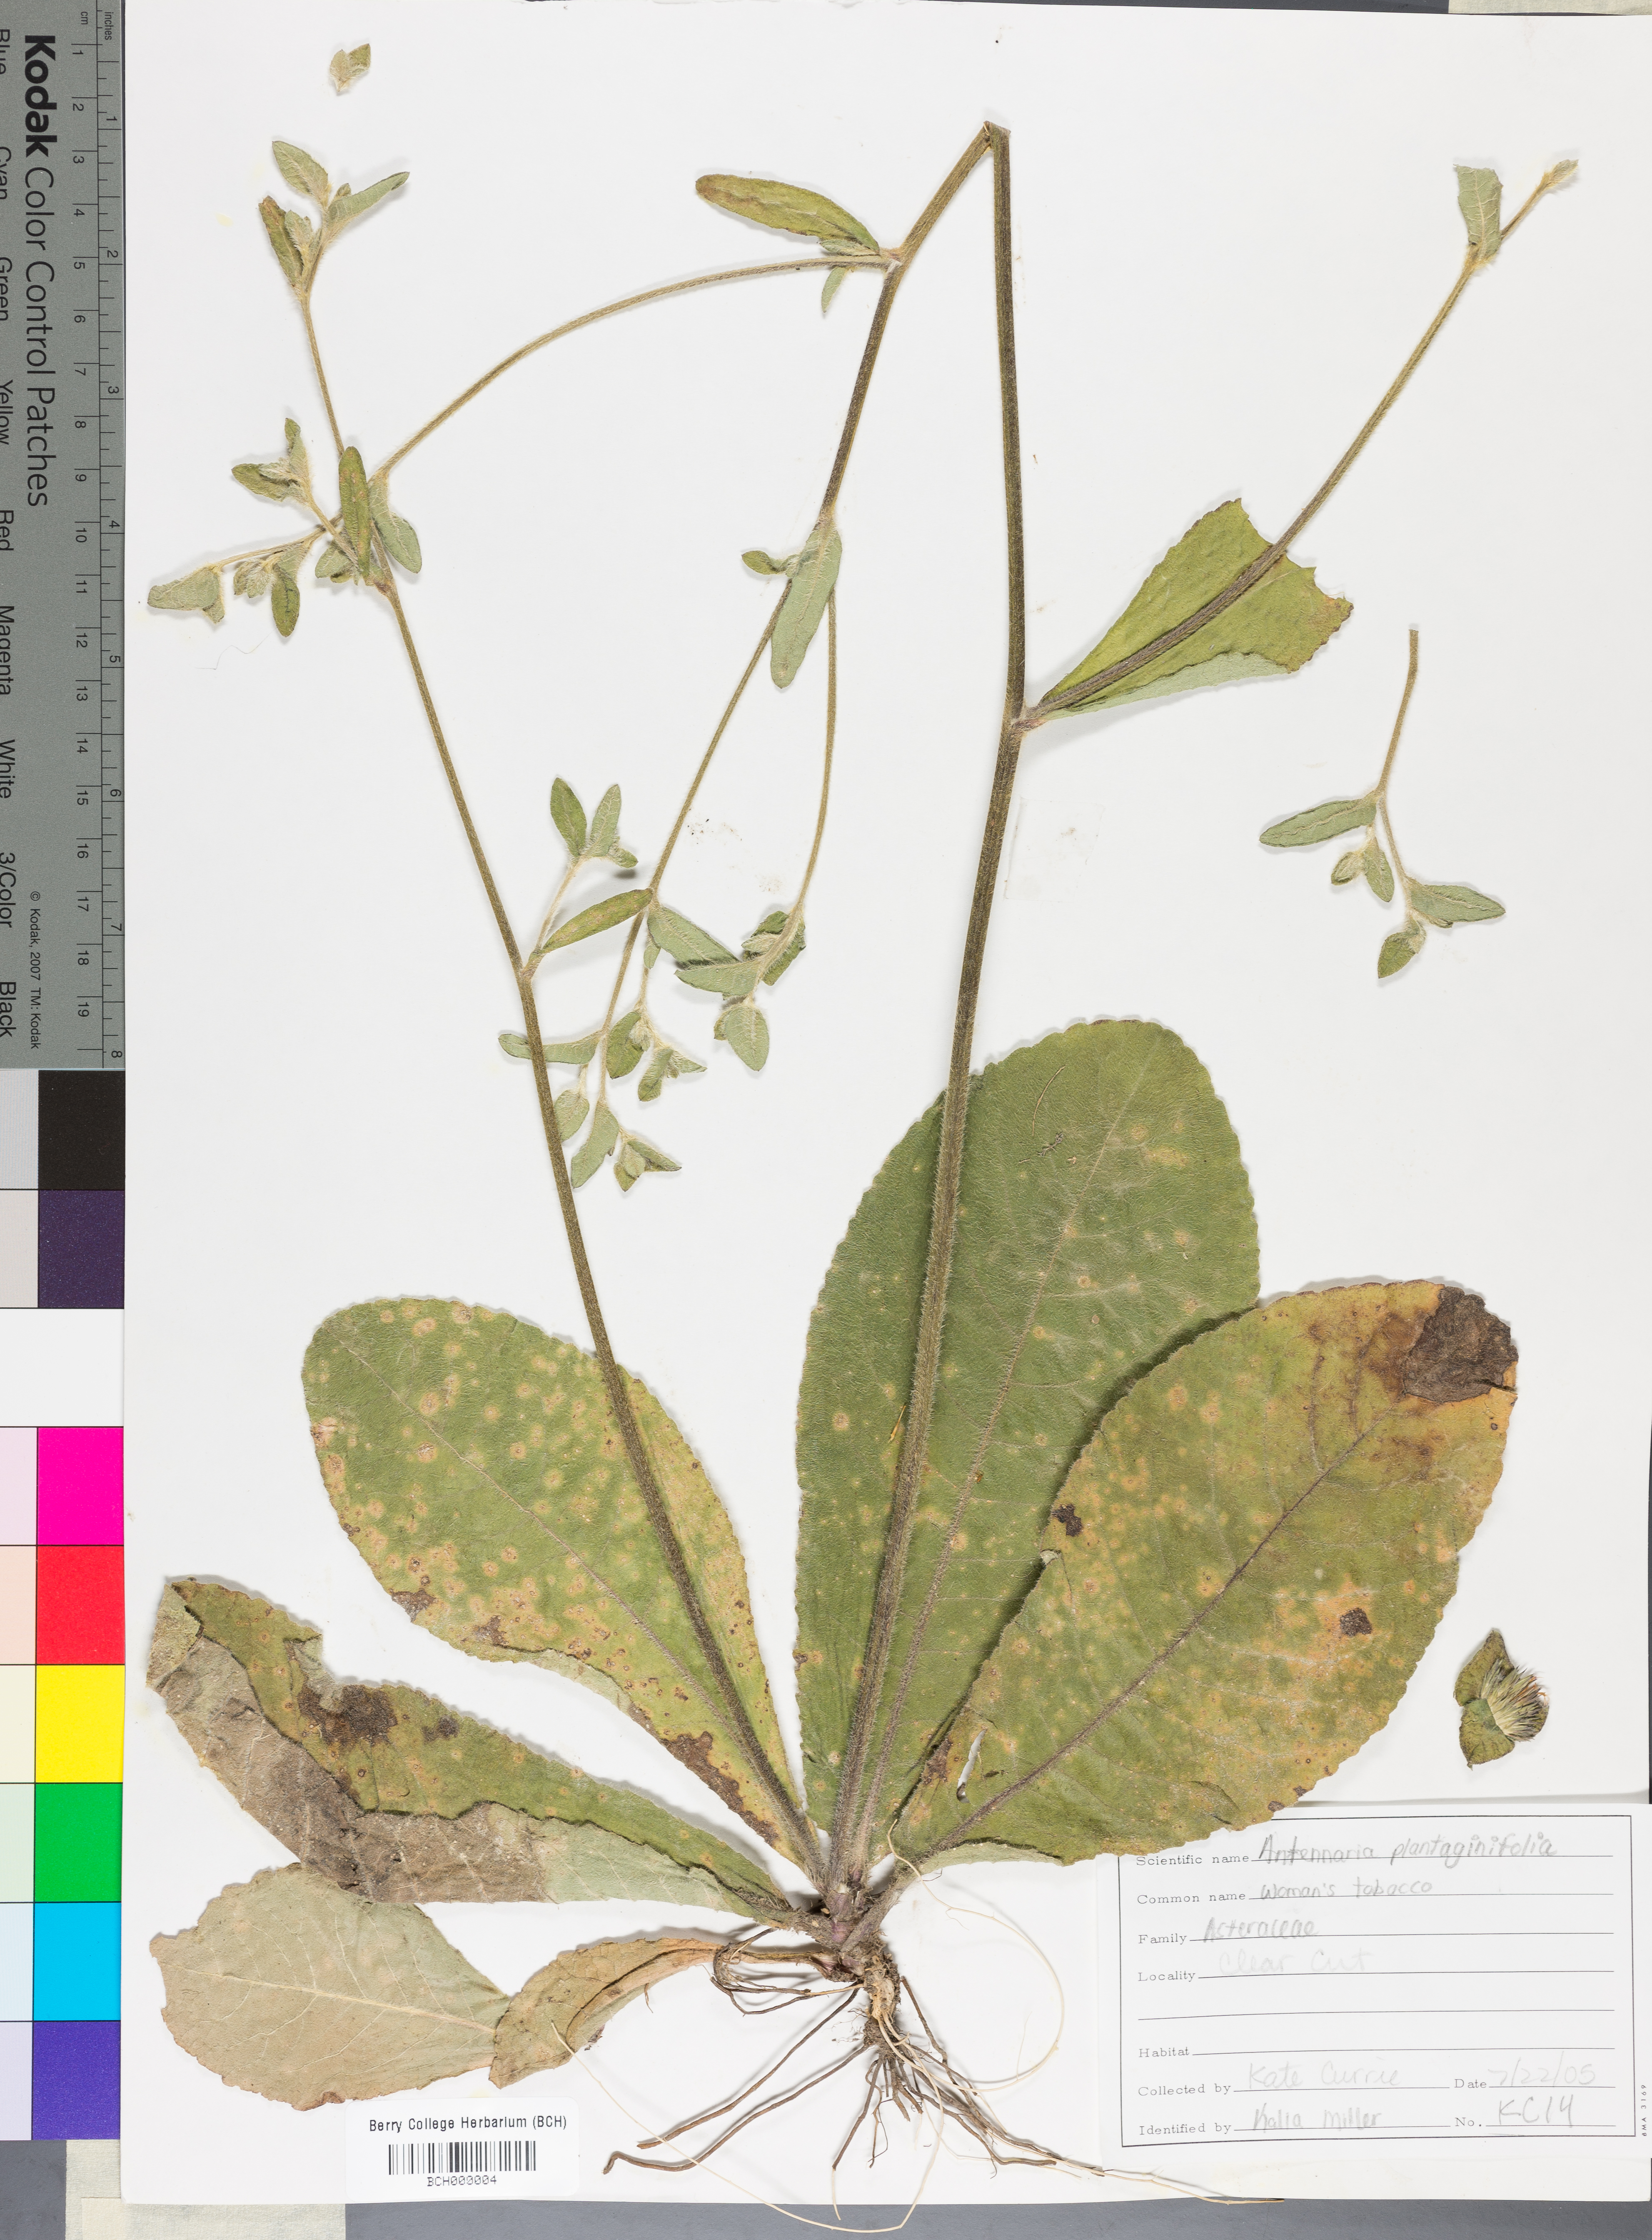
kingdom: Plantae
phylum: Tracheophyta
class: Magnoliopsida
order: Asterales
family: Asteraceae
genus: Antennaria
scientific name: Antennaria plantaginifolia
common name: Plantain-leaved pussytoes
